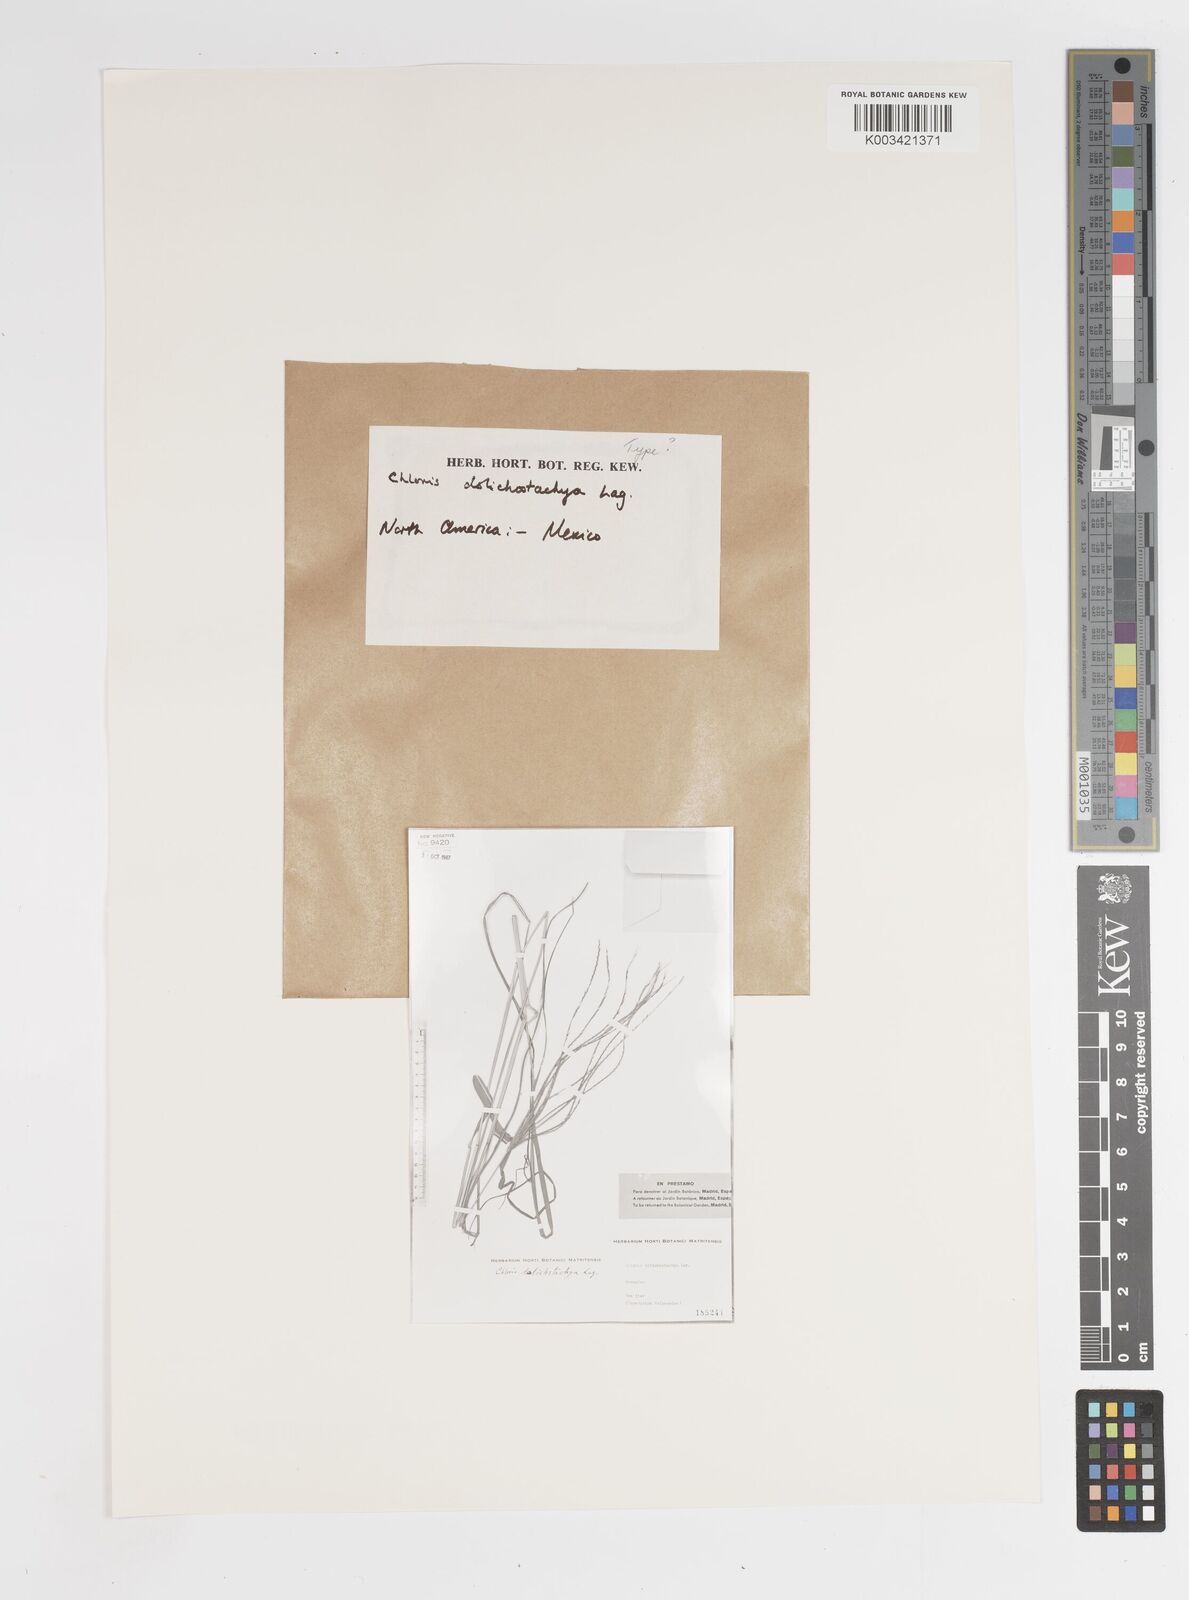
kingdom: Plantae
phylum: Tracheophyta
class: Liliopsida
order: Poales
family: Poaceae
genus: Enteropogon
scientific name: Enteropogon
